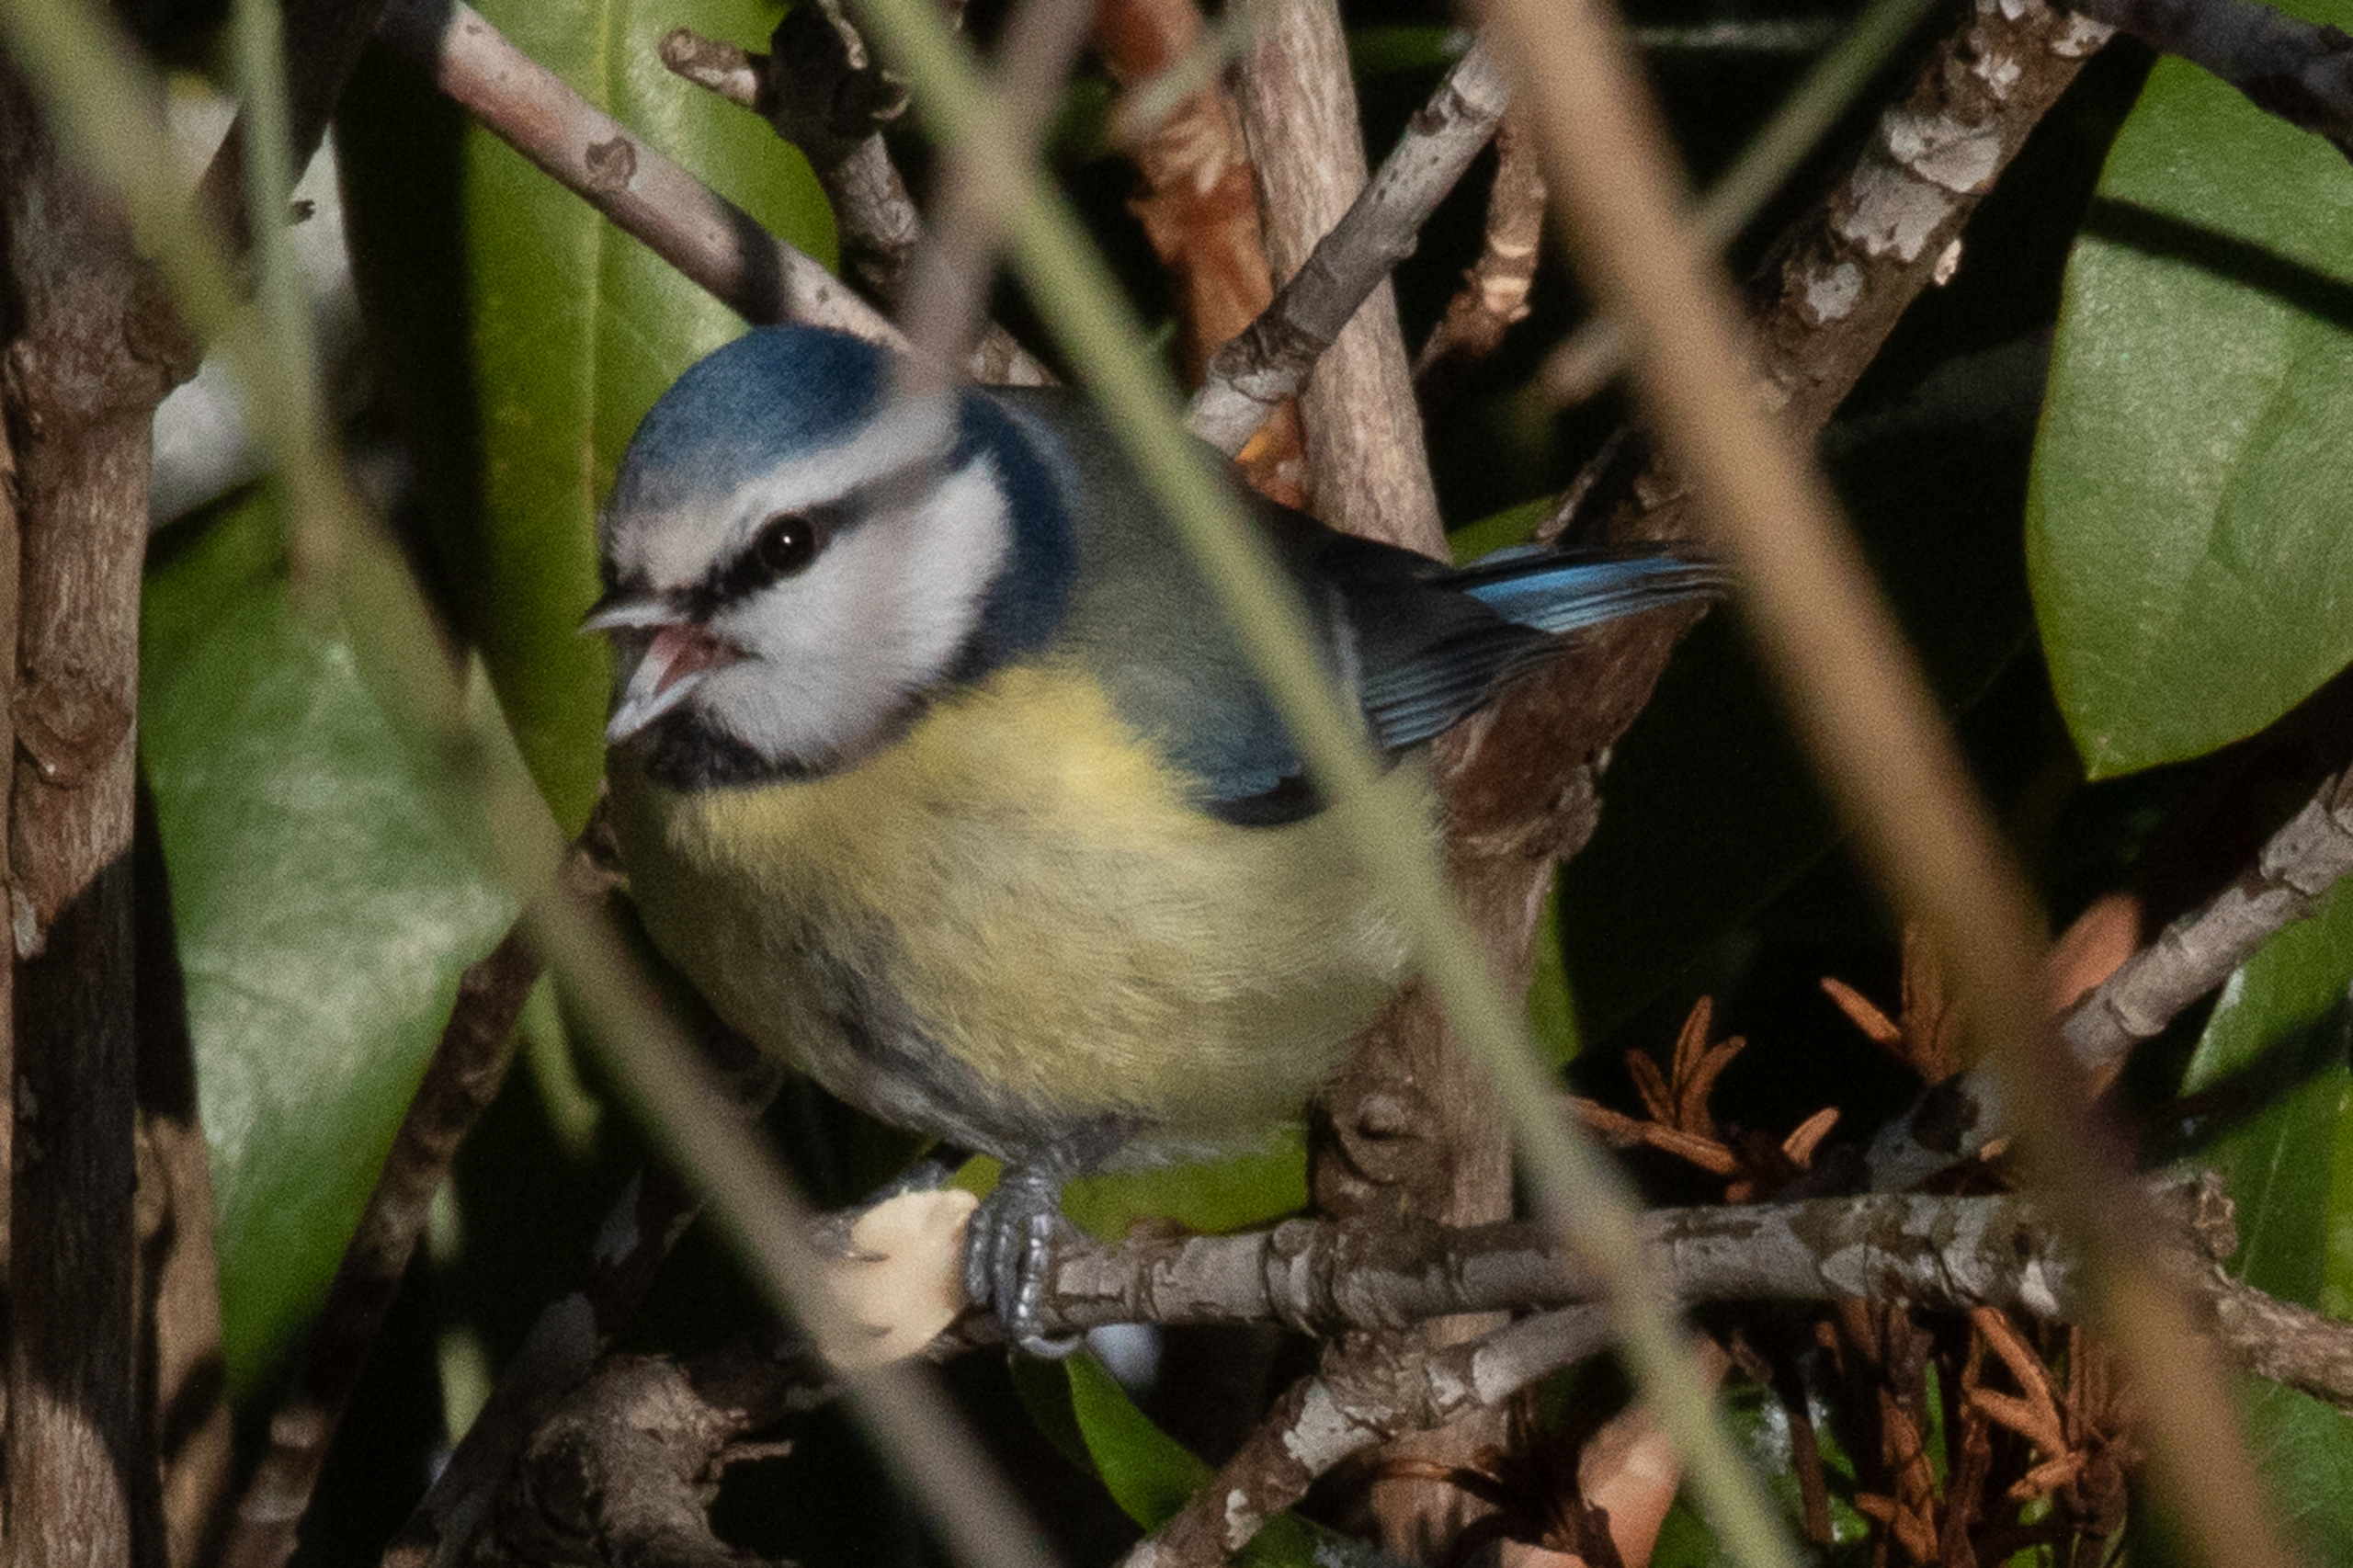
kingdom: Animalia
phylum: Chordata
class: Aves
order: Passeriformes
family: Paridae
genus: Cyanistes
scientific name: Cyanistes caeruleus
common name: Blåmejse
